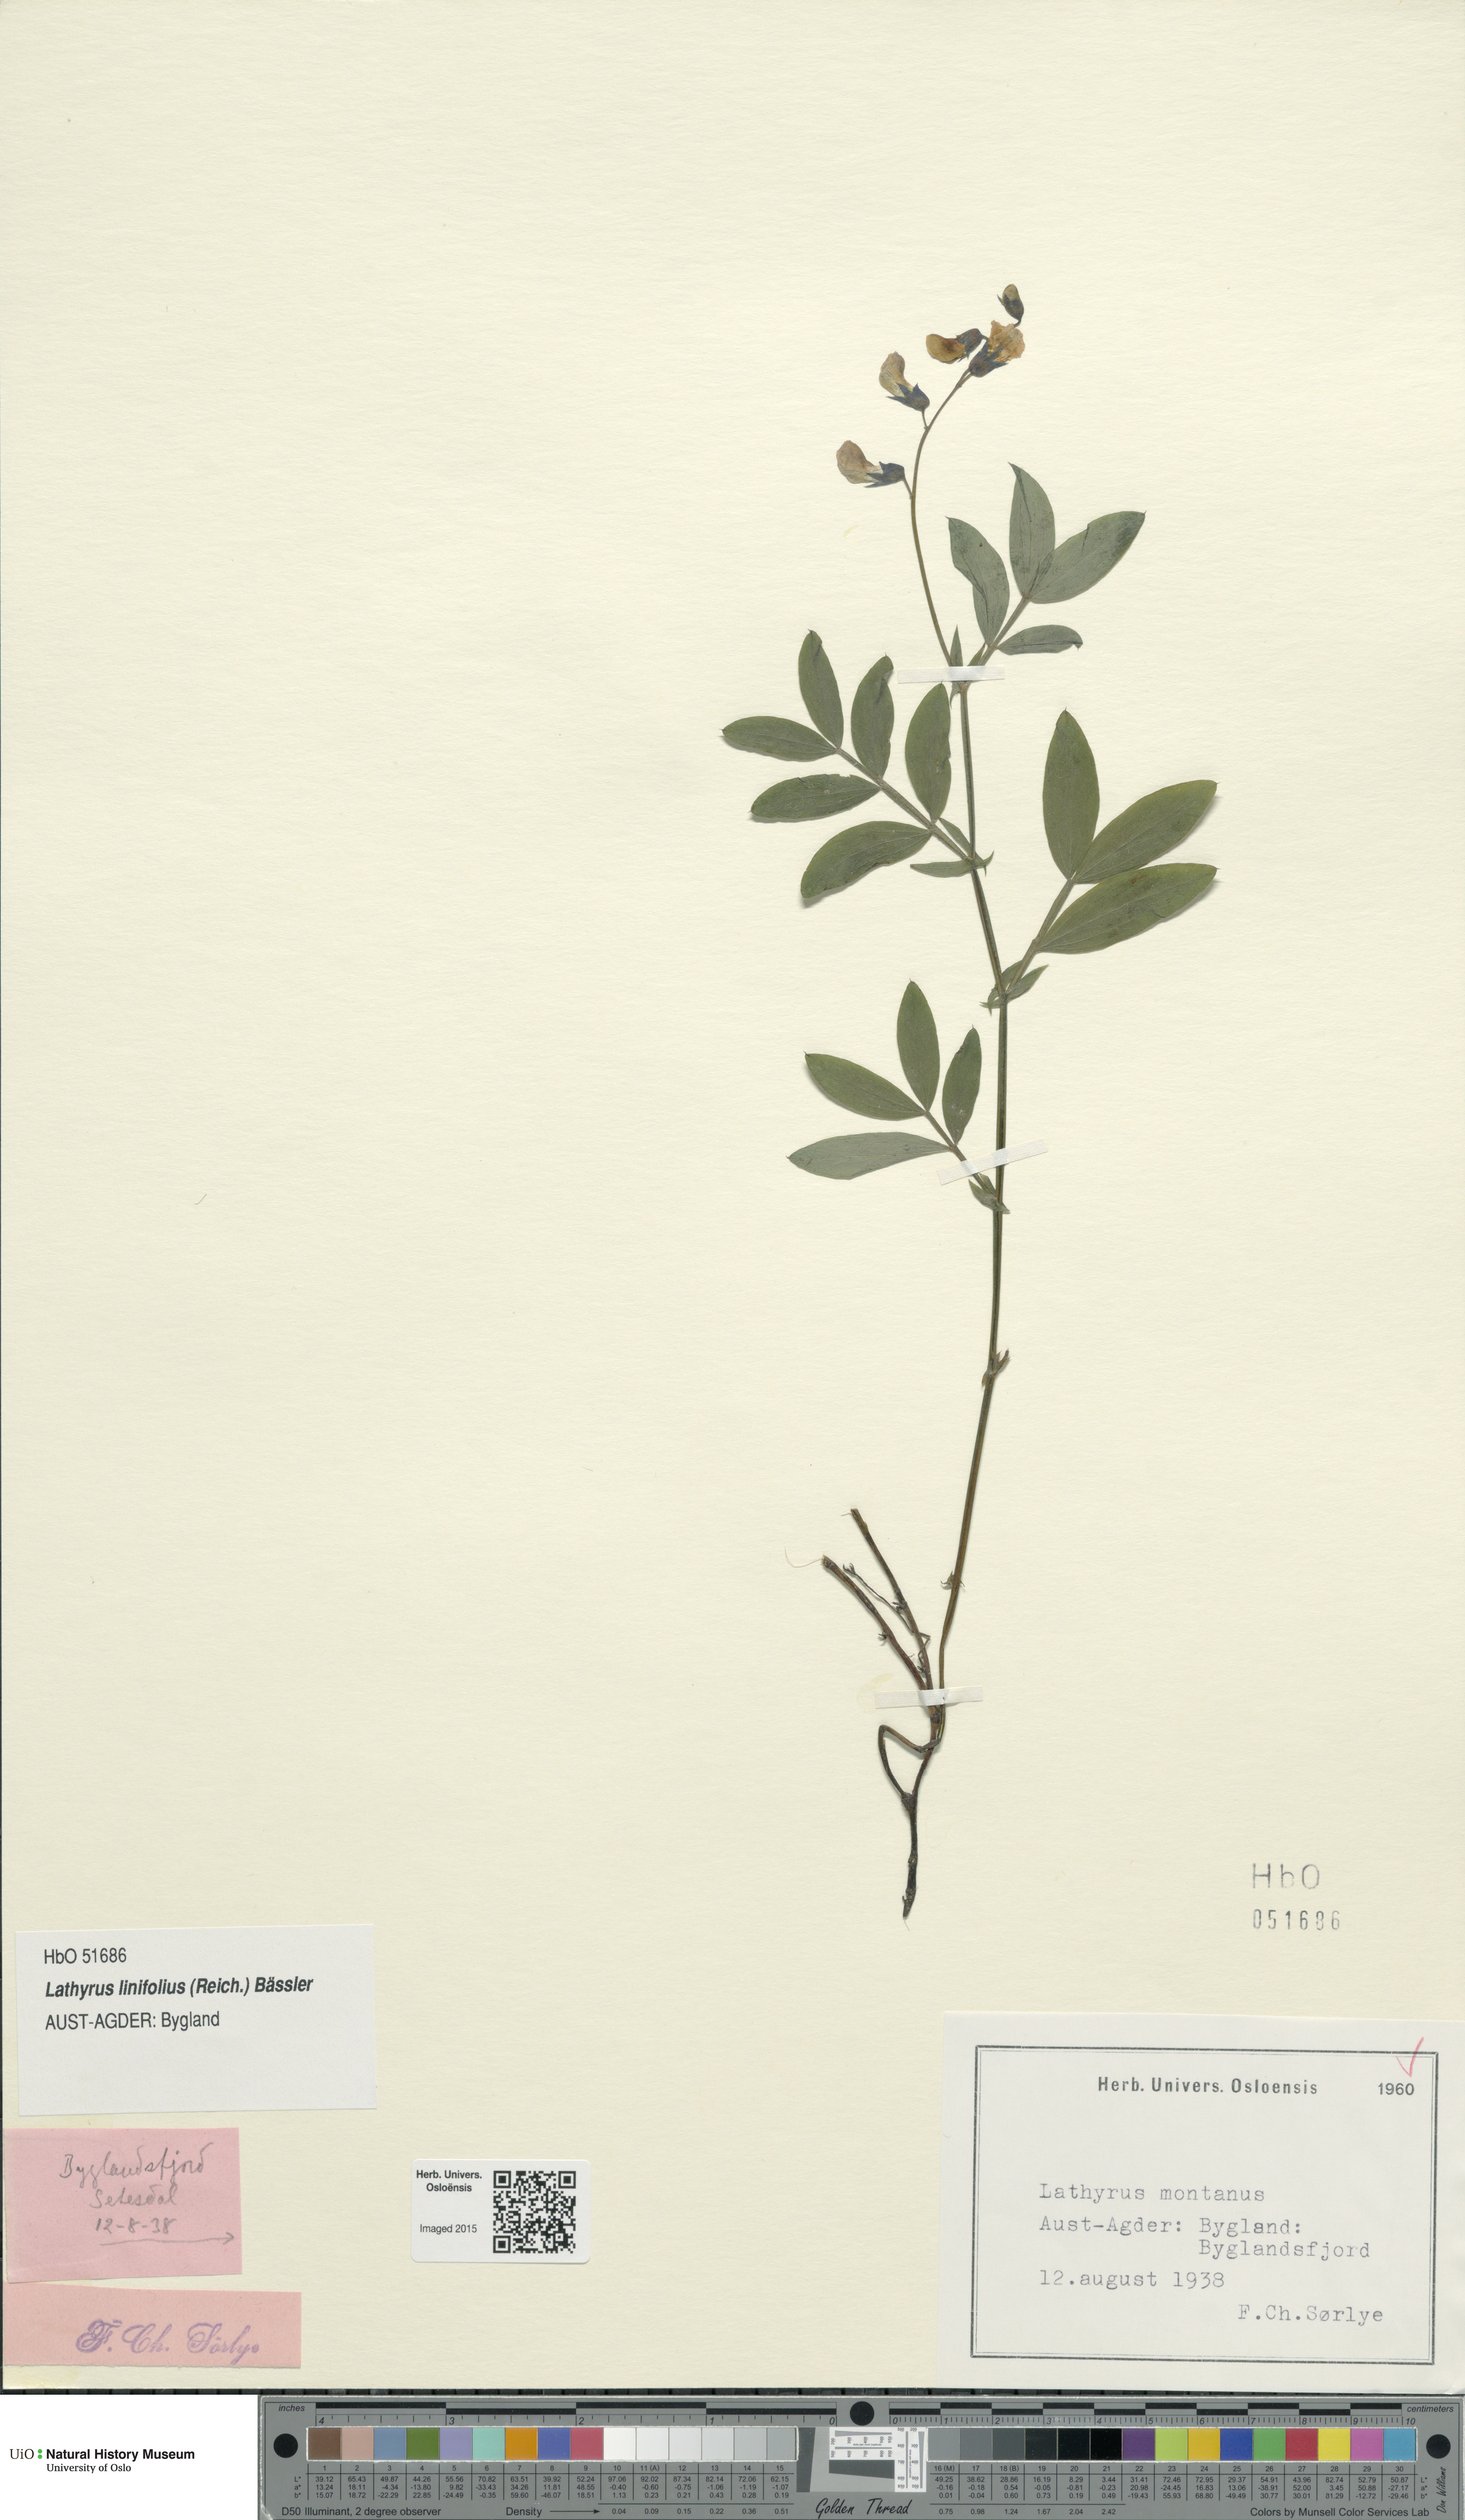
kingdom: Plantae
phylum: Tracheophyta
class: Magnoliopsida
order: Fabales
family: Fabaceae
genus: Lathyrus
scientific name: Lathyrus linifolius
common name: Bitter-vetch
